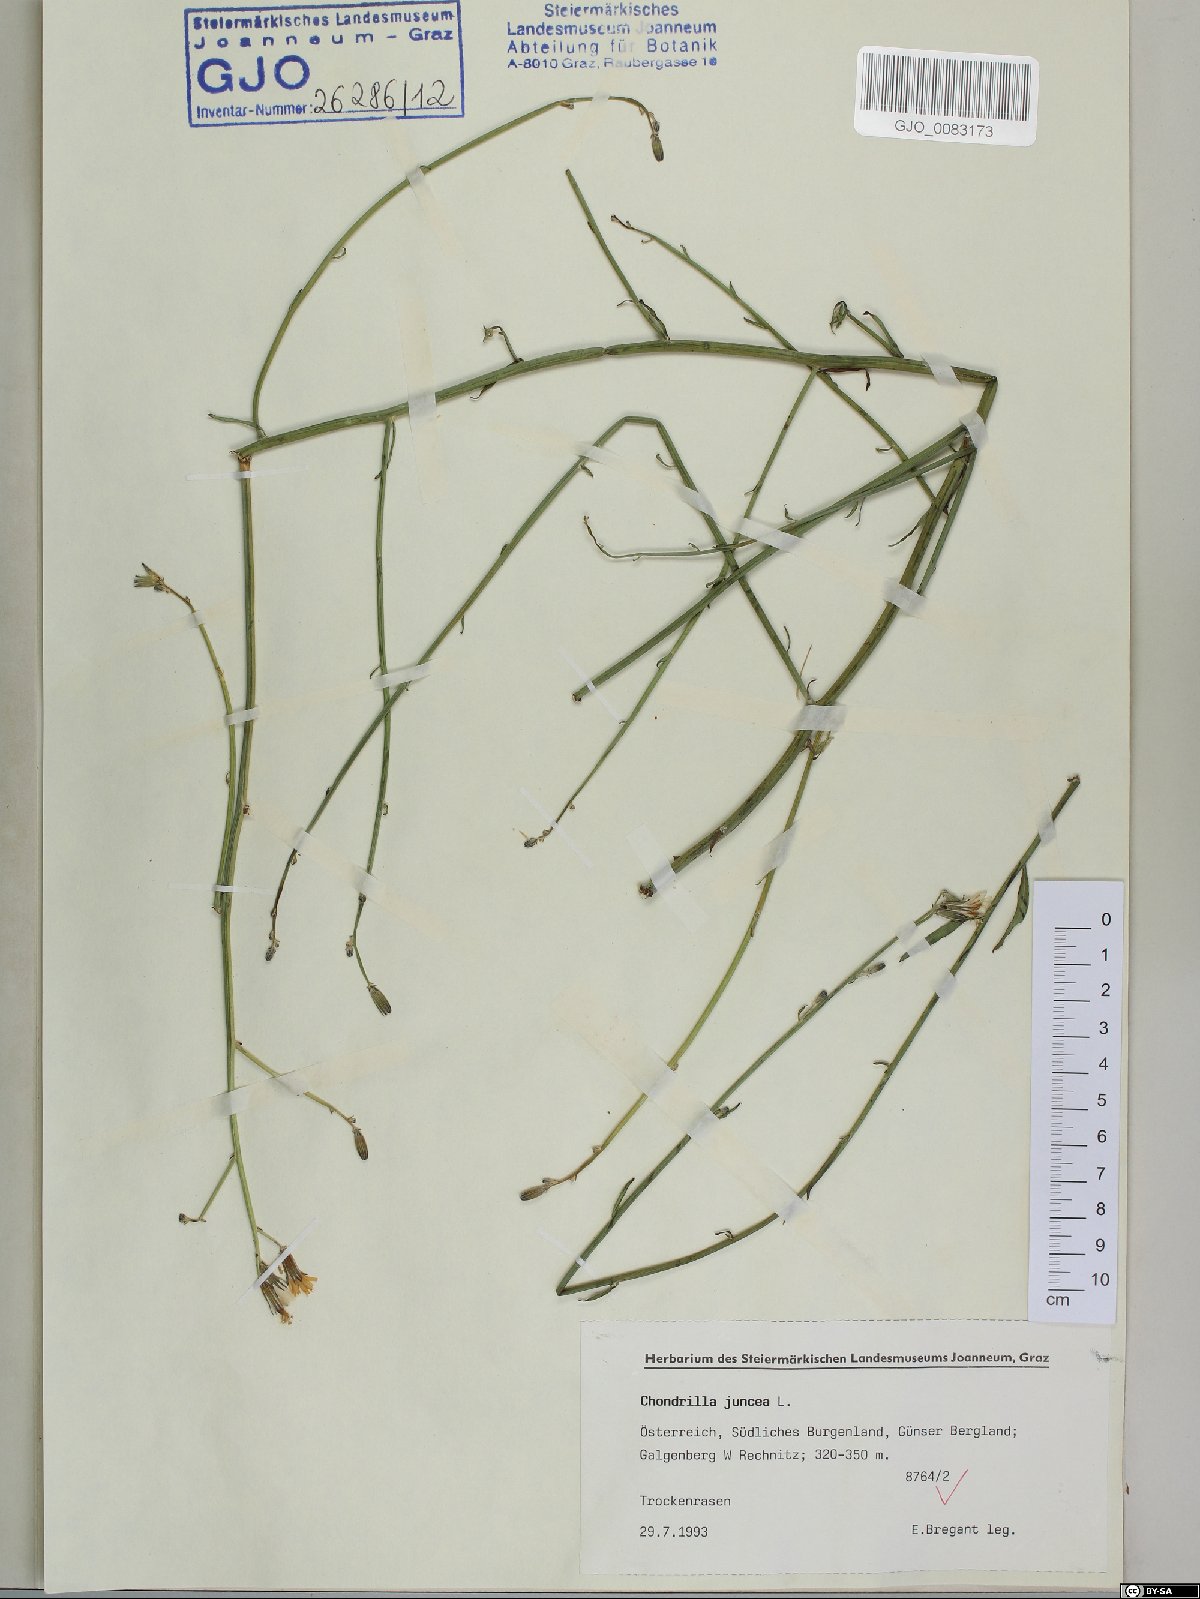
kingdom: Plantae
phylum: Tracheophyta
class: Magnoliopsida
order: Asterales
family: Asteraceae
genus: Chondrilla
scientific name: Chondrilla juncea
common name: Skeleton weed
